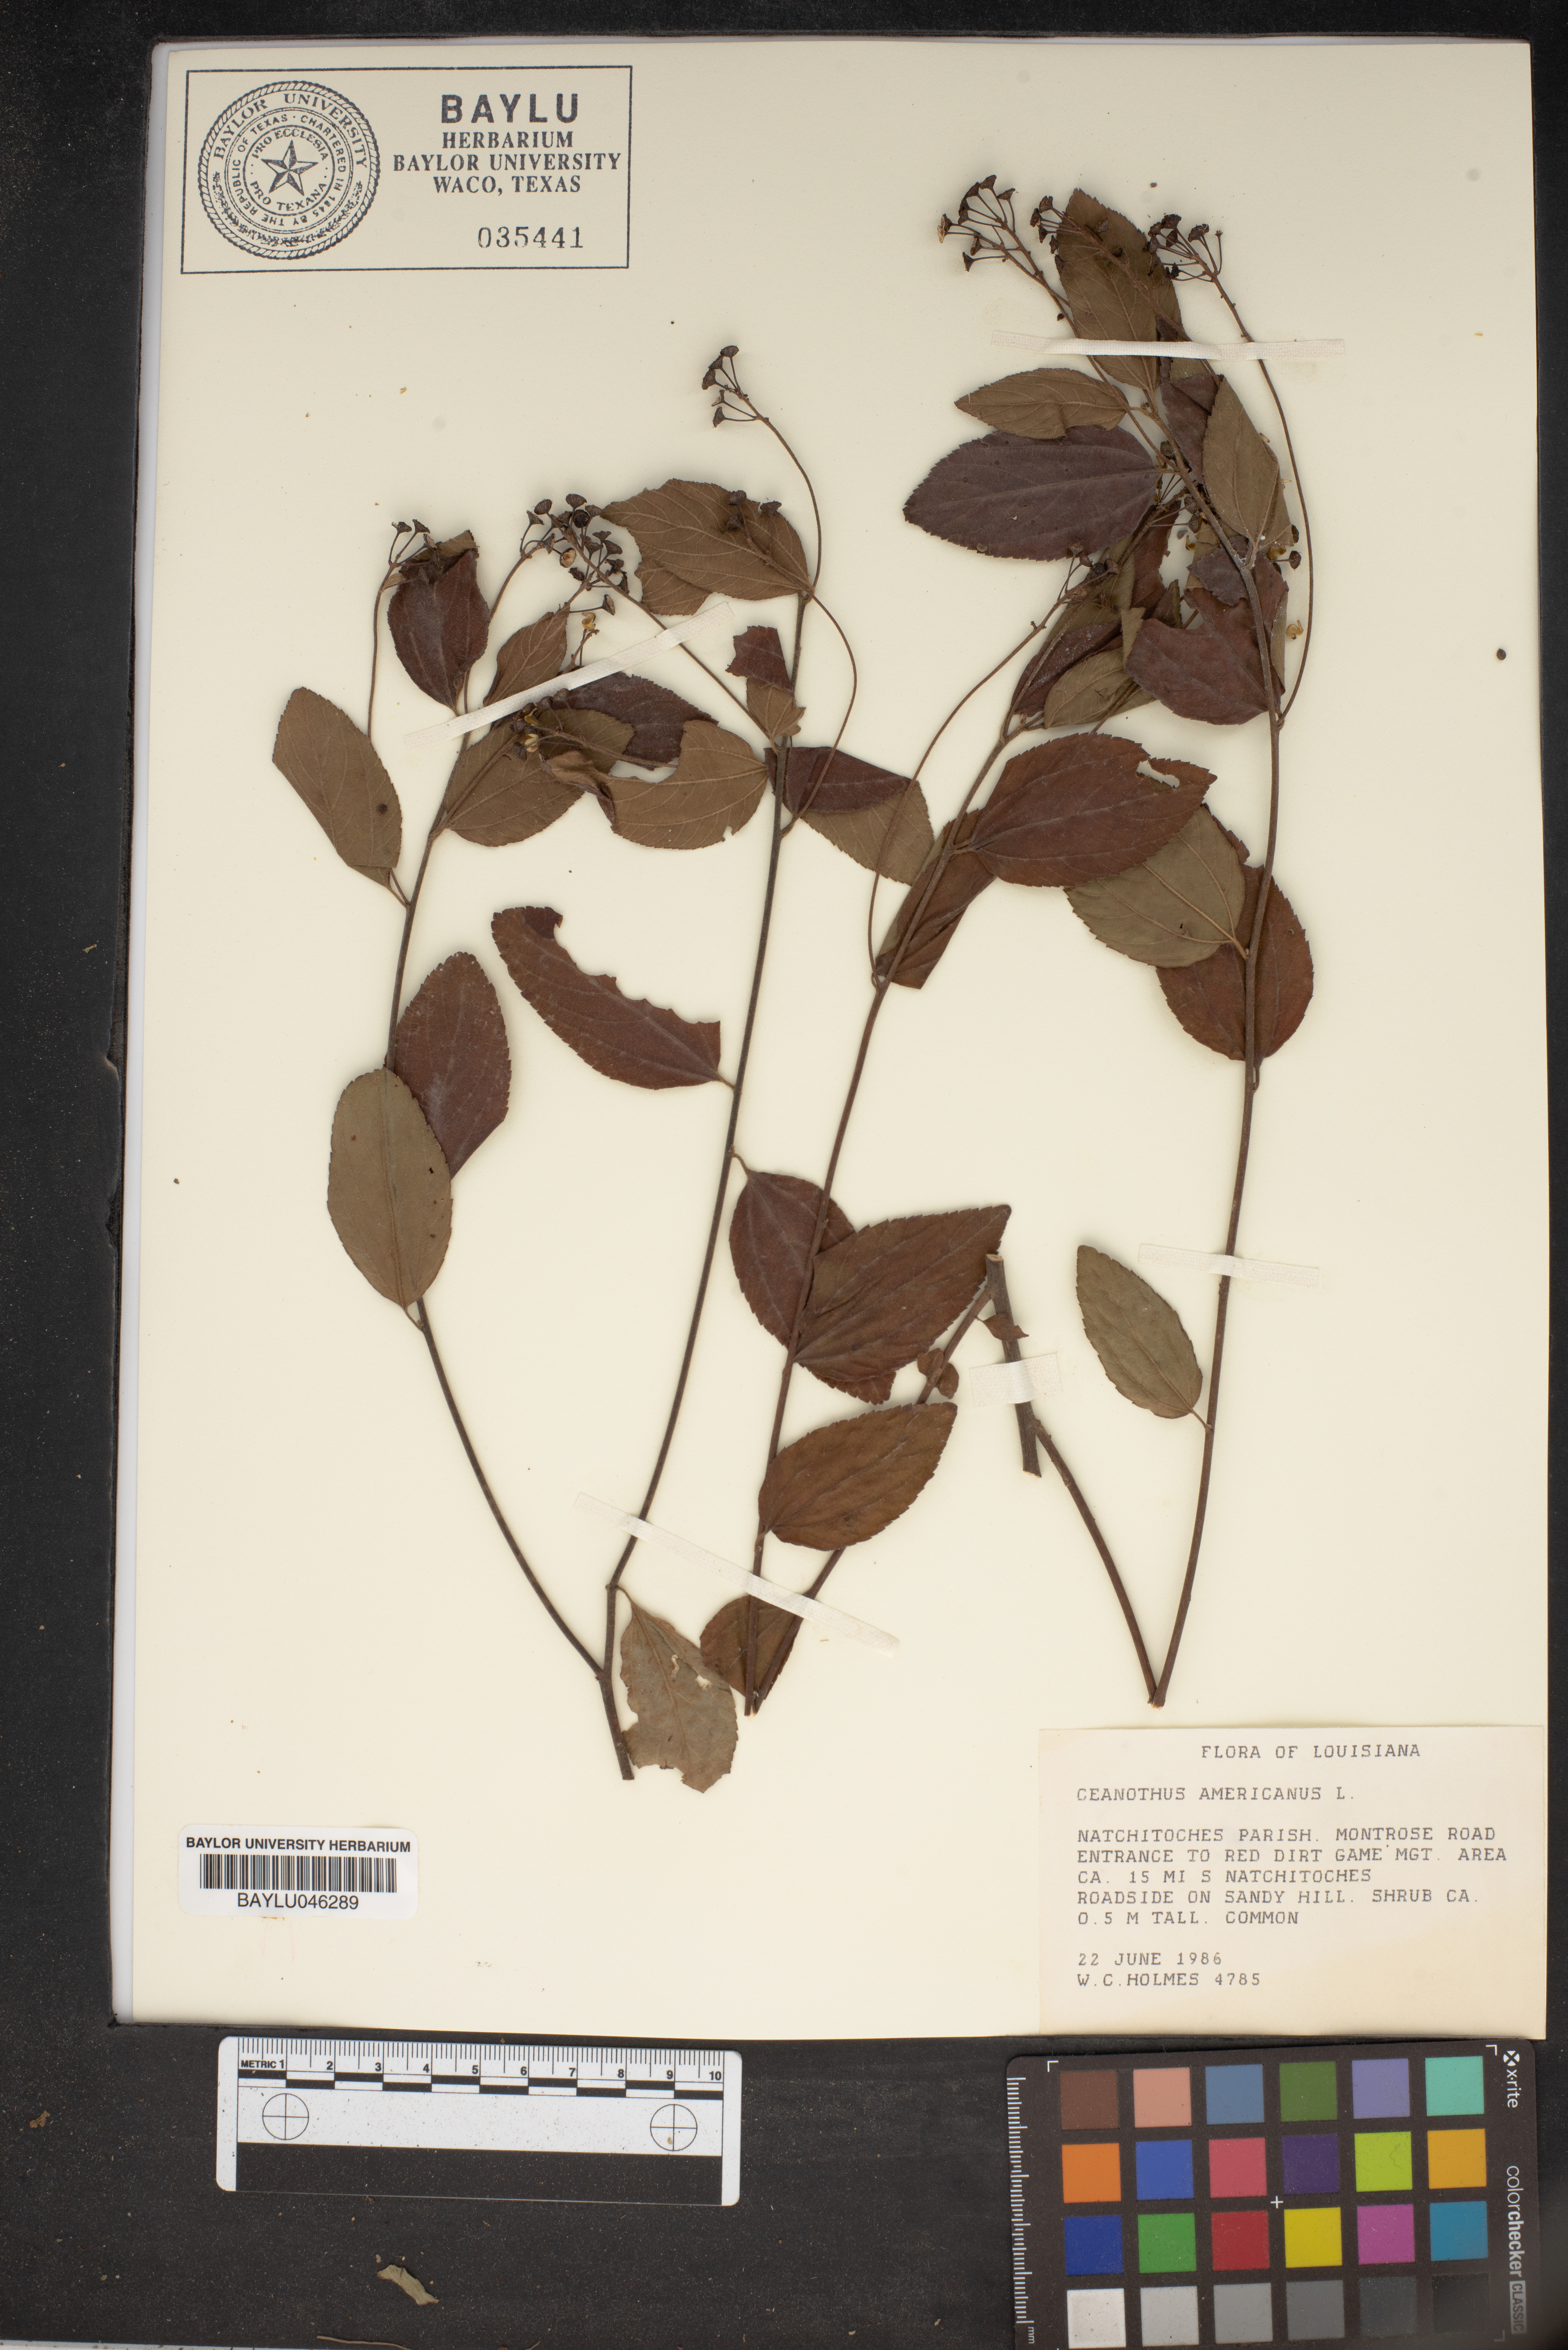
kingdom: Plantae
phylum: Tracheophyta
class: Magnoliopsida
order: Rosales
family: Rhamnaceae
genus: Ceanothus
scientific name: Ceanothus americanus
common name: Redroot
